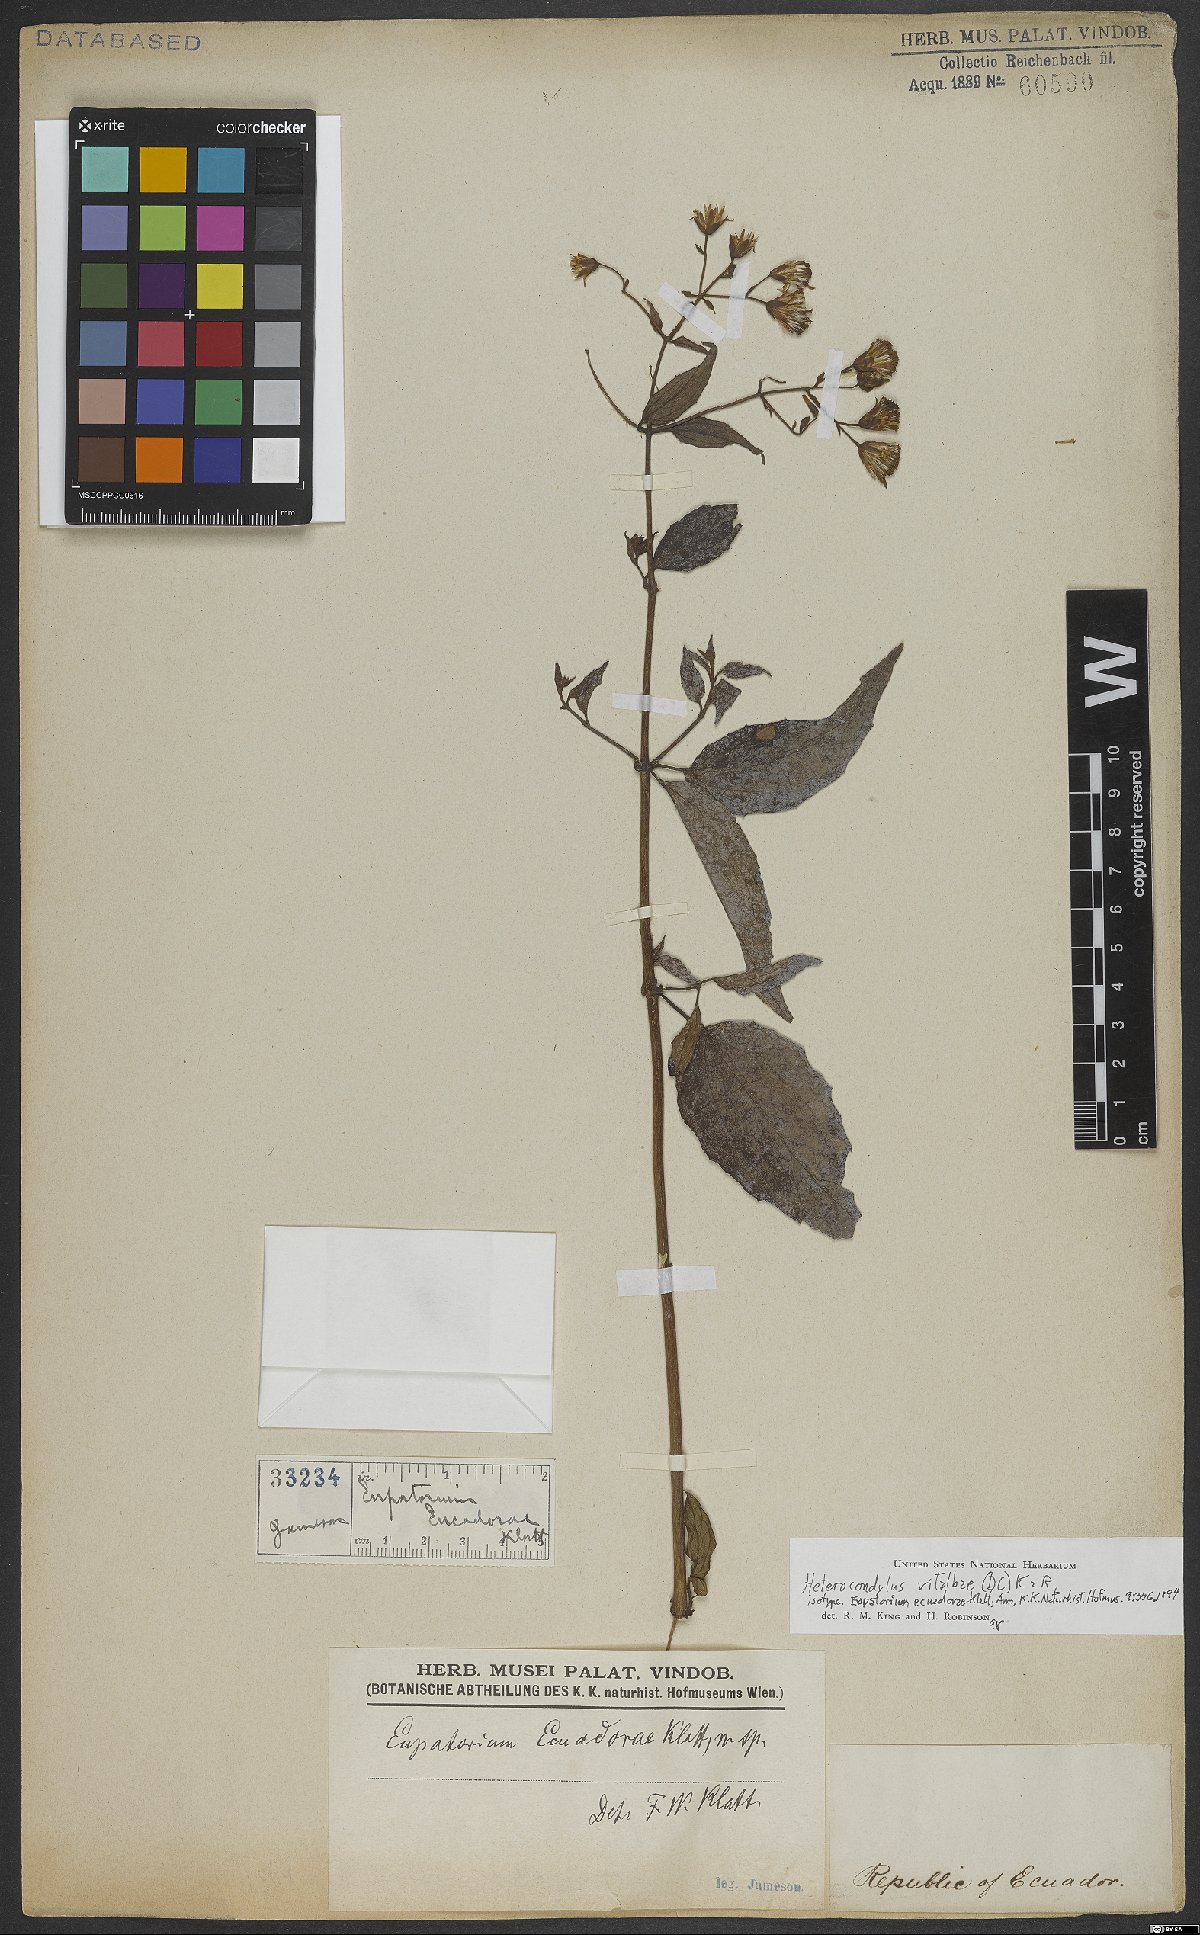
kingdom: Plantae
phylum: Tracheophyta
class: Magnoliopsida
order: Asterales
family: Asteraceae
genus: Heterocondylus
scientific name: Heterocondylus vitalbae
